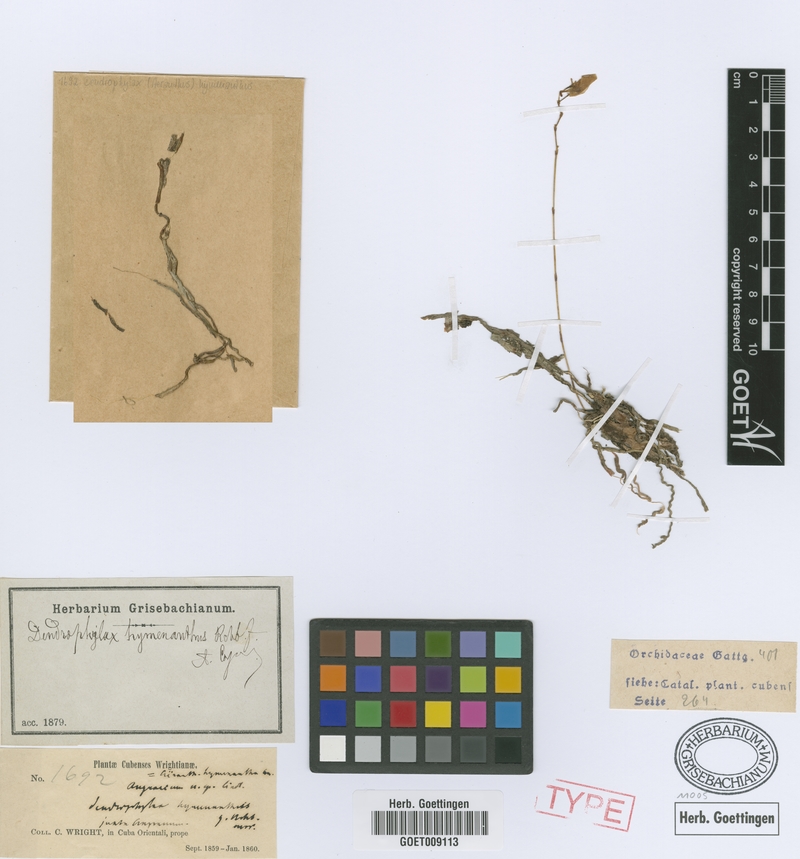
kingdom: Plantae
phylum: Tracheophyta
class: Liliopsida
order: Asparagales
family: Orchidaceae
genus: Dendrophylax
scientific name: Dendrophylax varius
